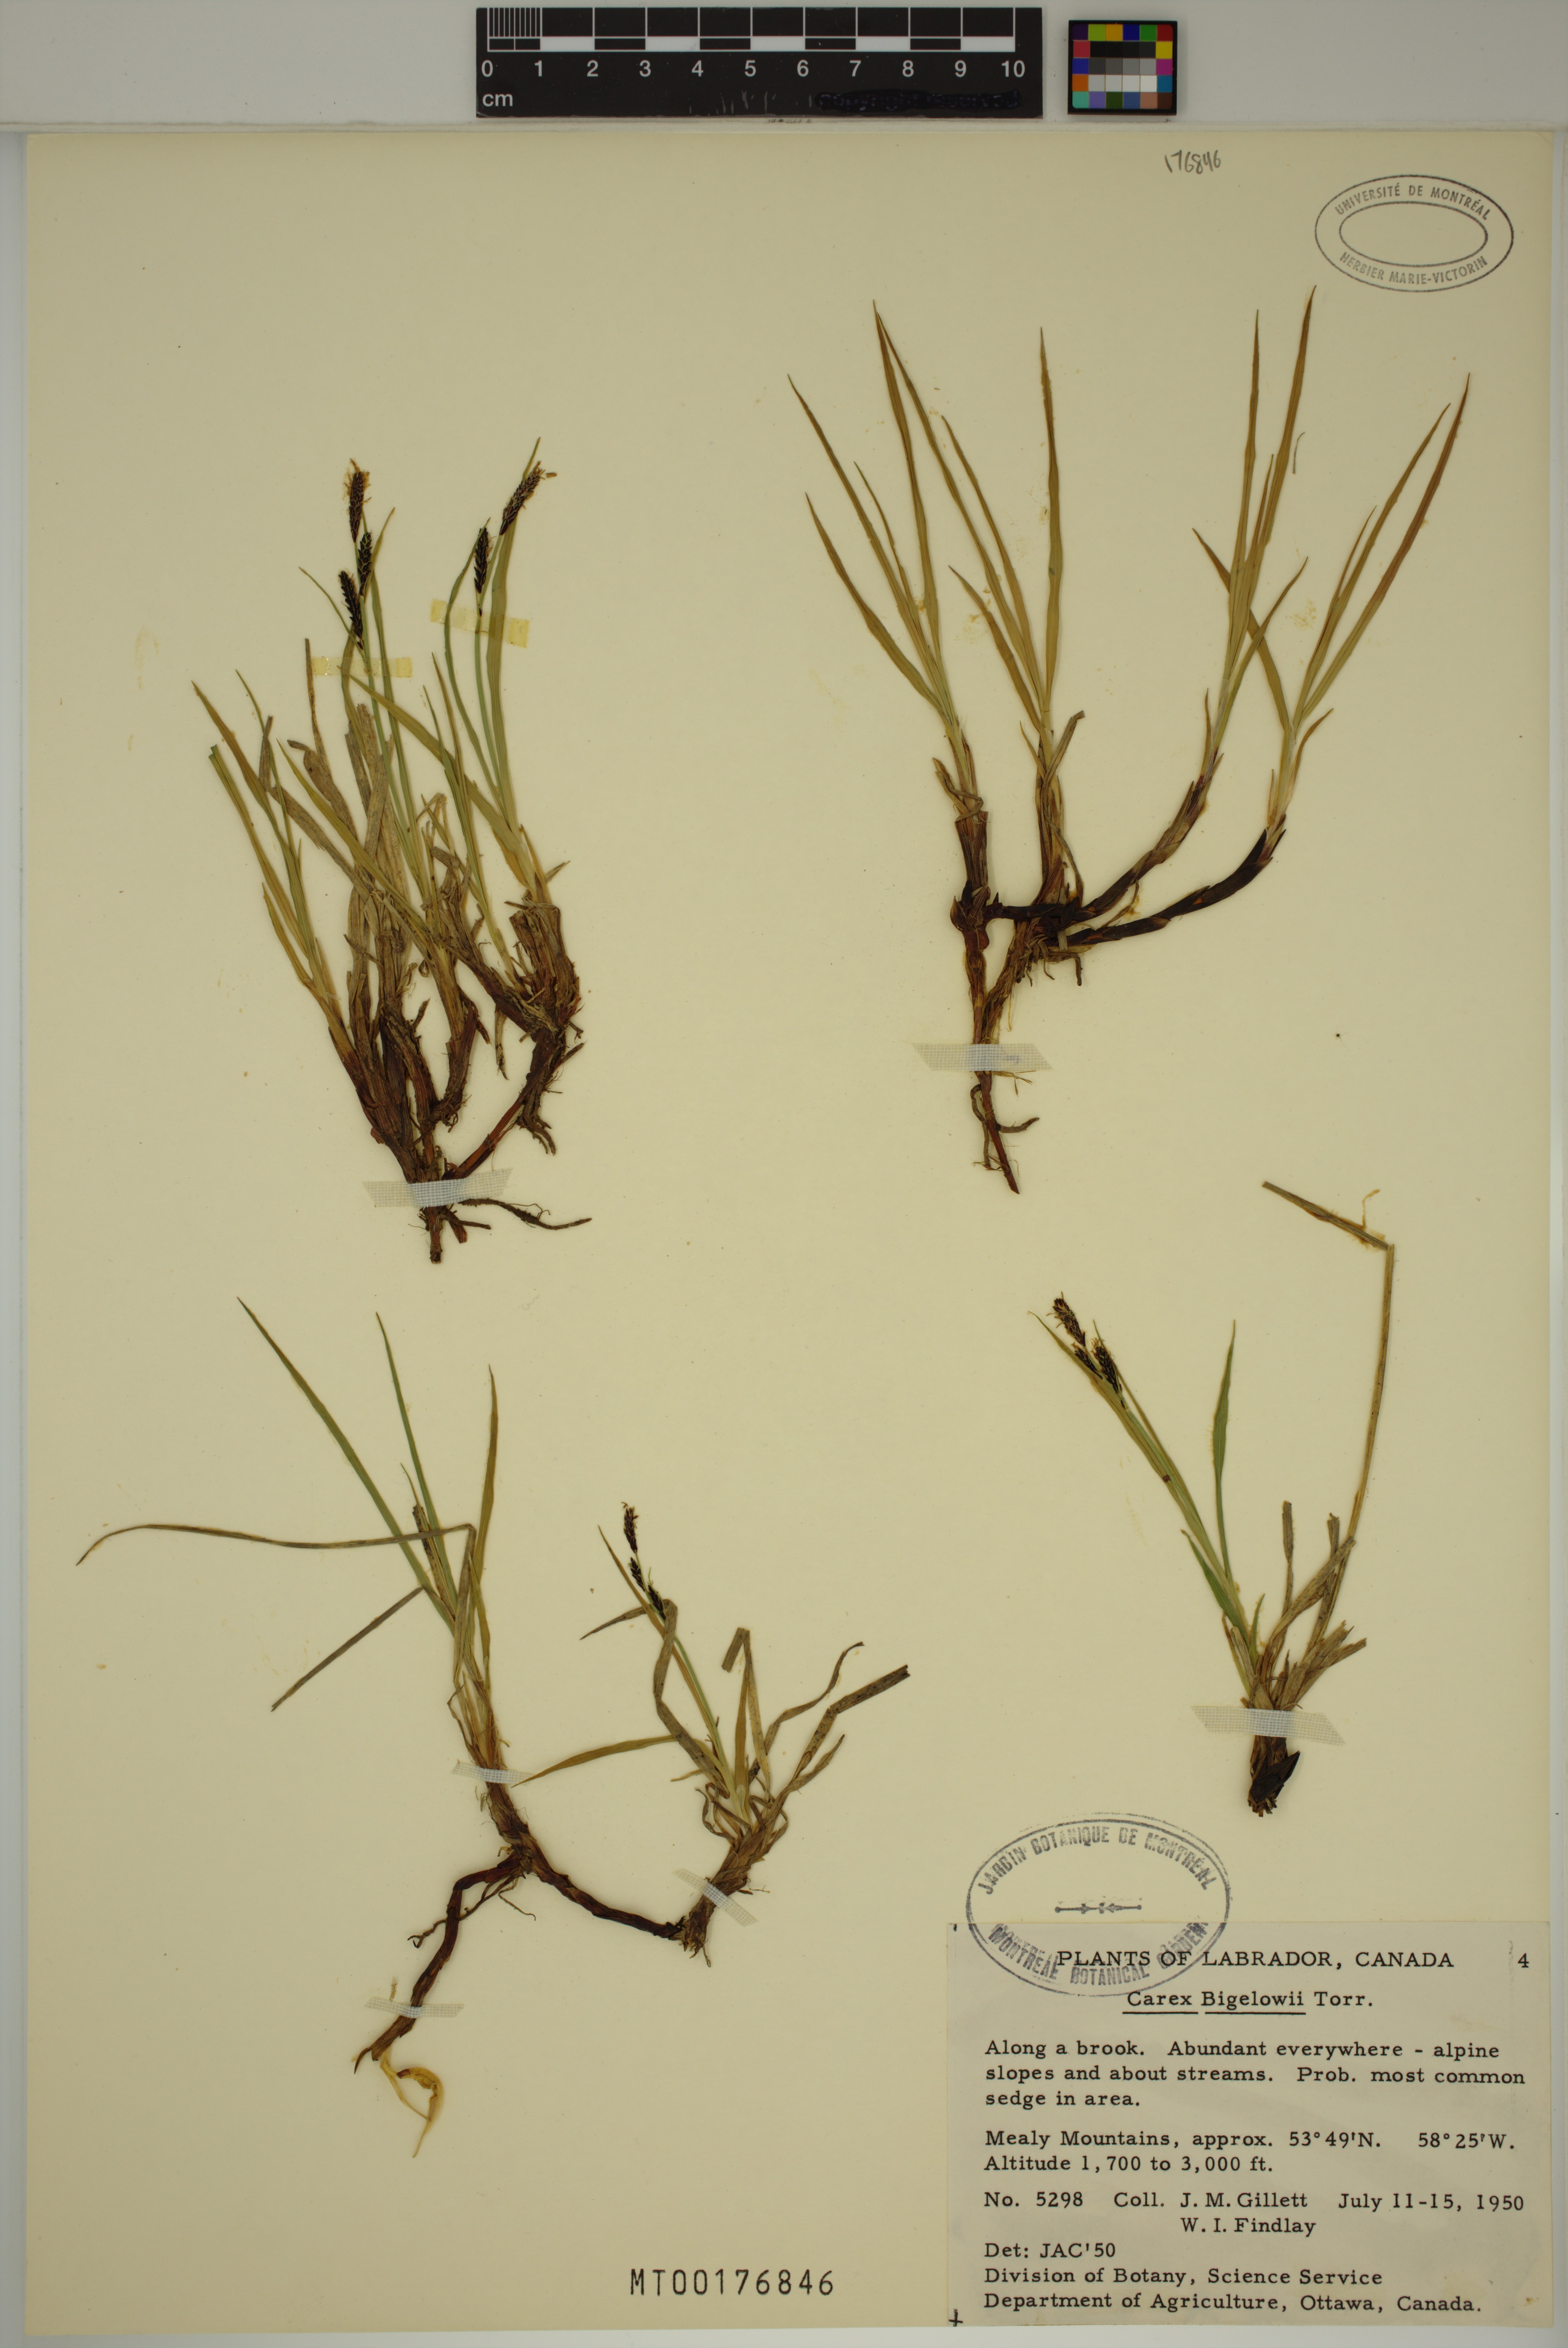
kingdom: Plantae
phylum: Tracheophyta
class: Liliopsida
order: Poales
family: Cyperaceae
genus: Carex
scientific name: Carex bigelowii
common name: Stiff sedge
